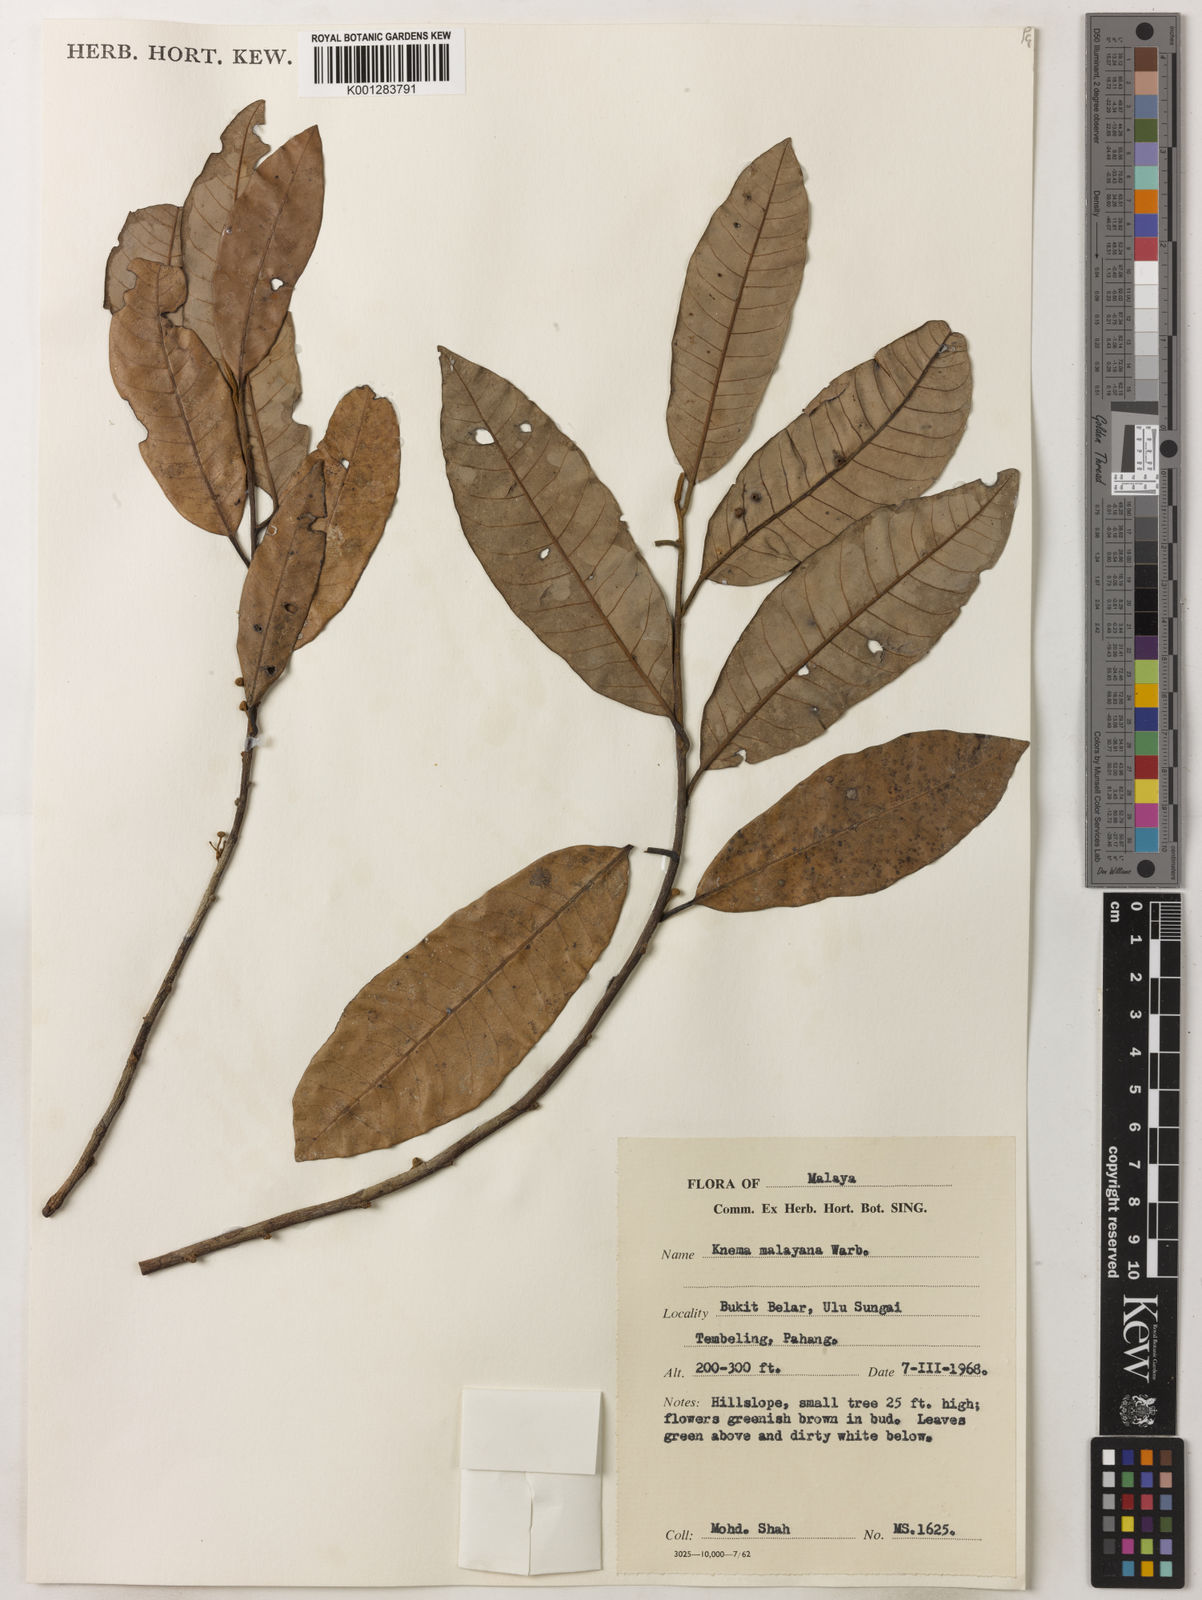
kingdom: Plantae
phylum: Tracheophyta
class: Magnoliopsida
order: Magnoliales
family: Myristicaceae
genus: Knema
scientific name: Knema malayana
